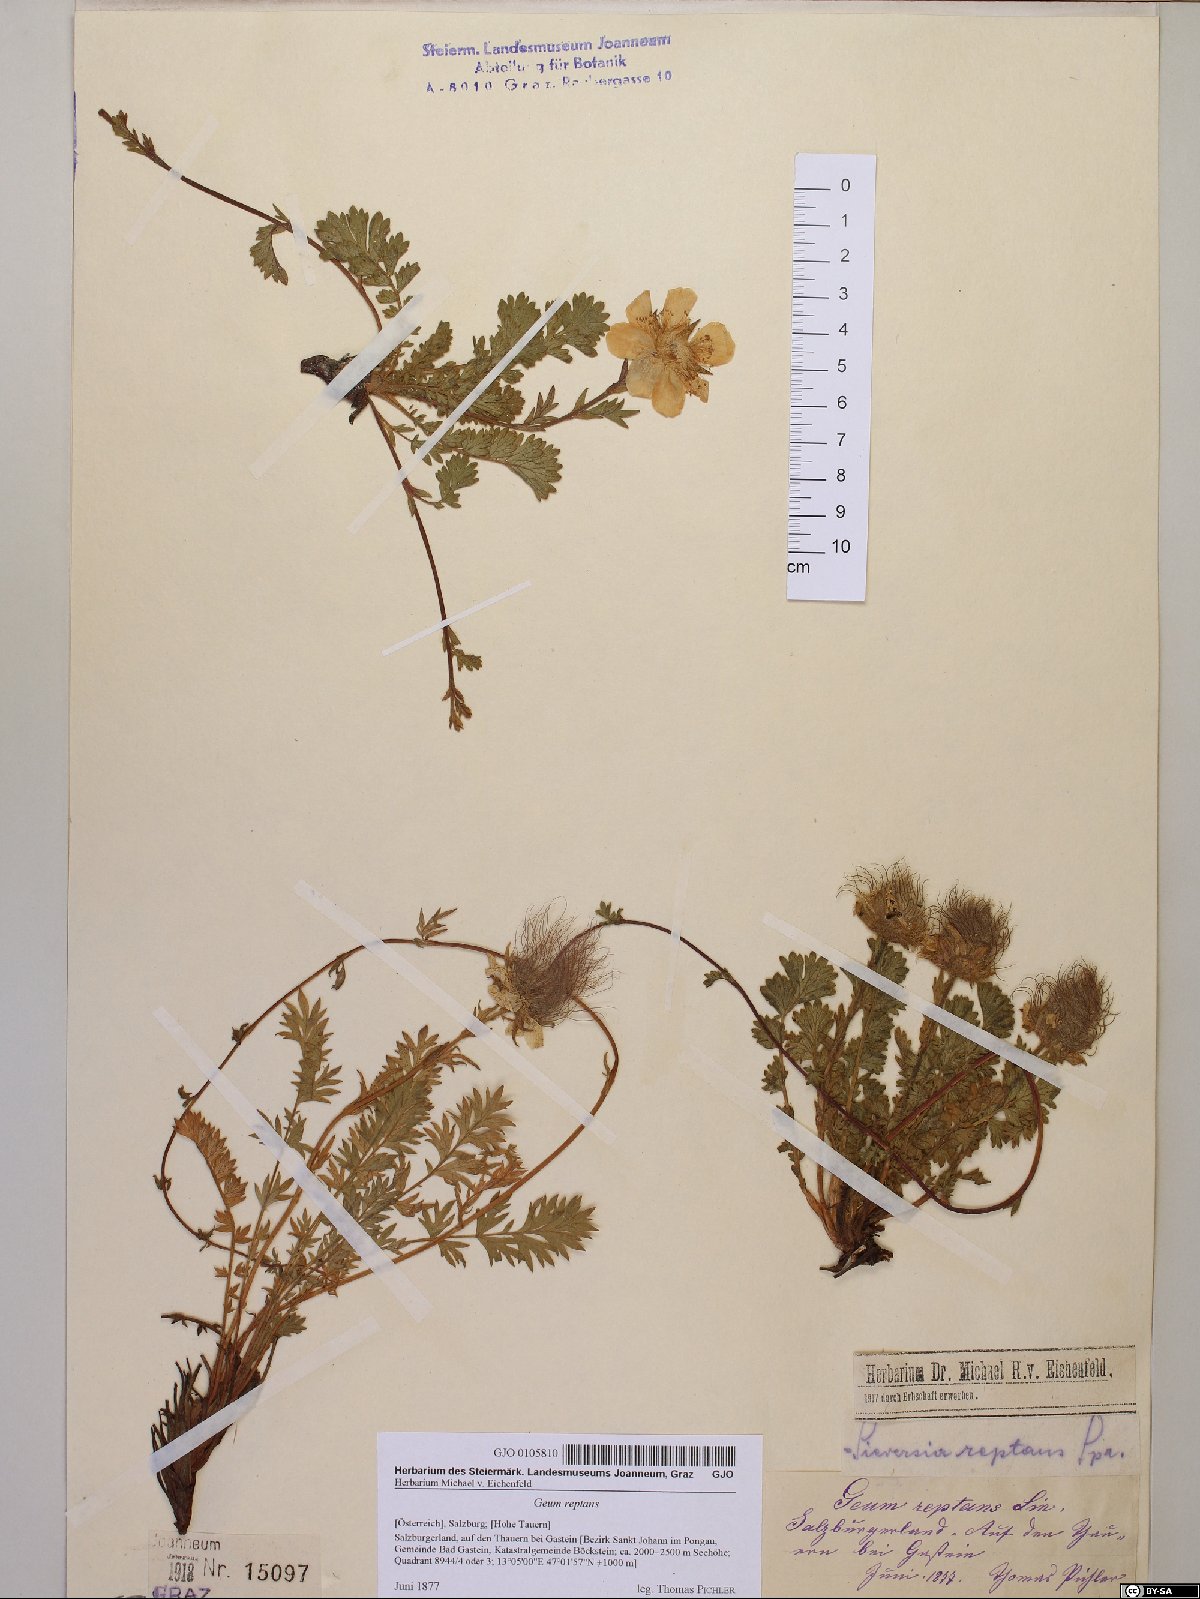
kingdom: Plantae
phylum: Tracheophyta
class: Magnoliopsida
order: Rosales
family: Rosaceae
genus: Geum
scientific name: Geum reptans
